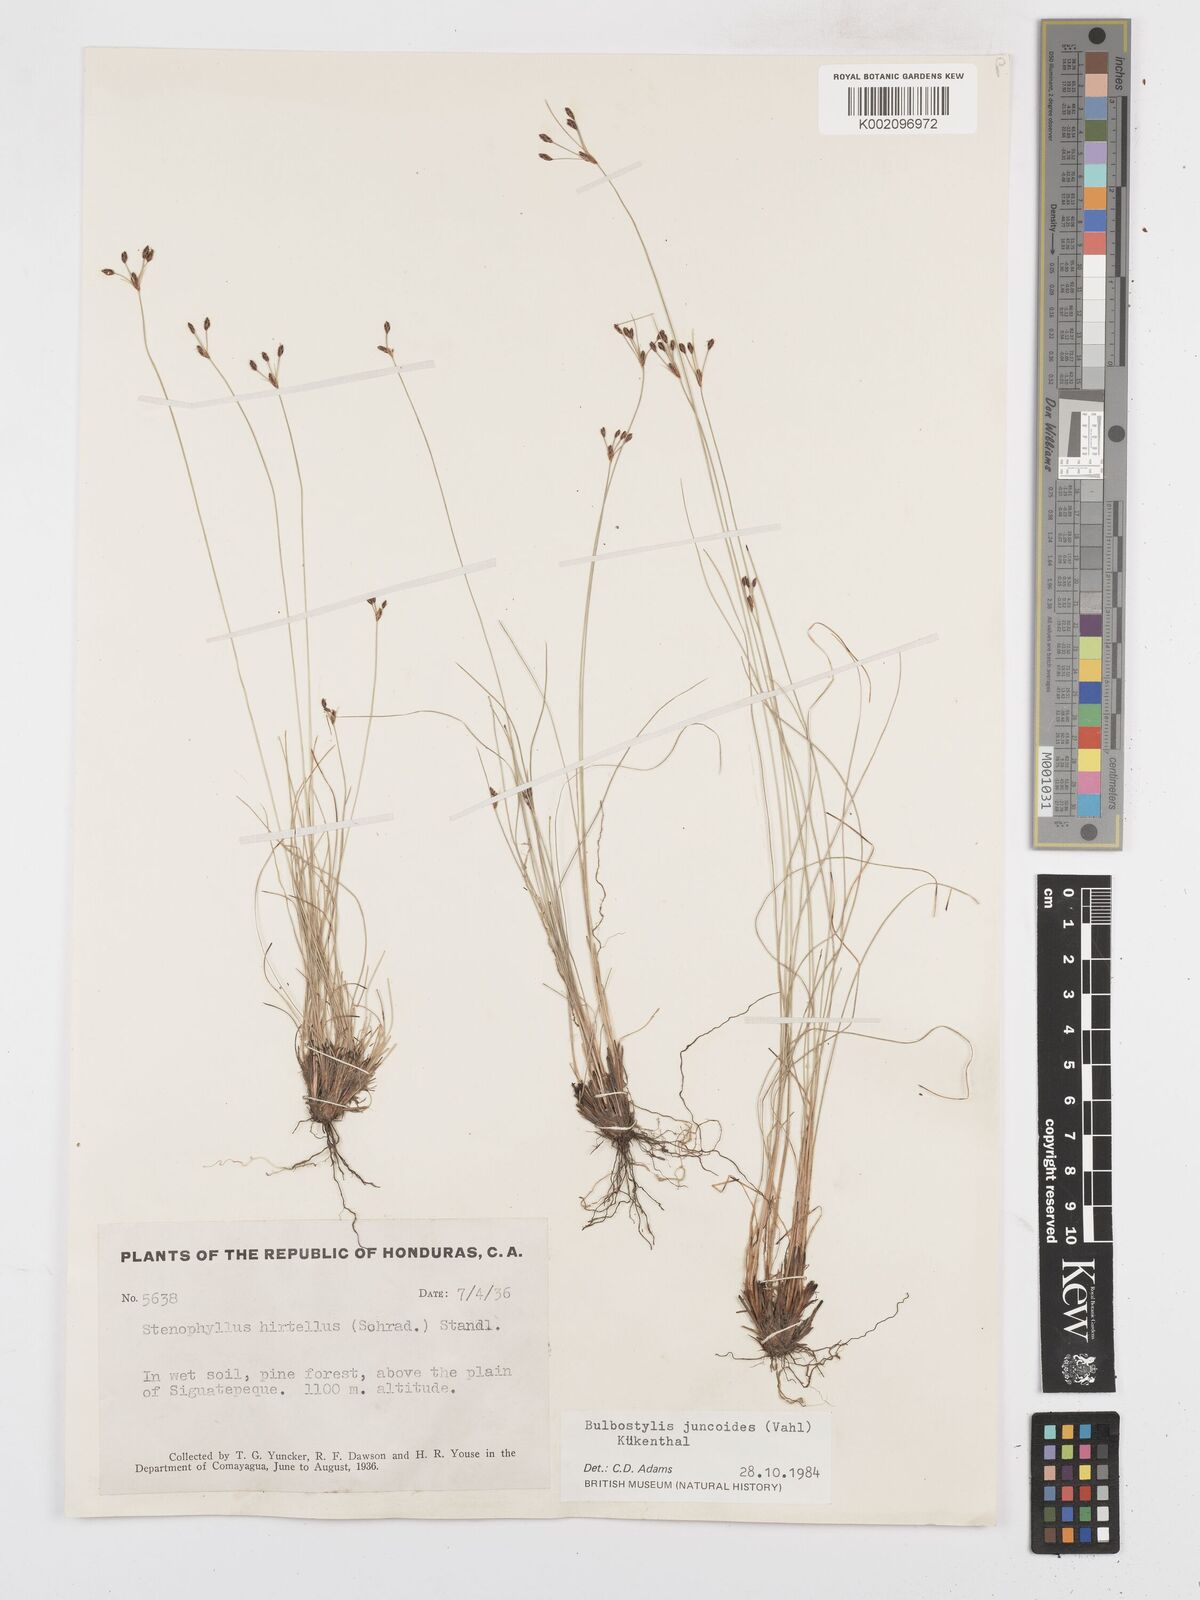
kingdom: Plantae
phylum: Tracheophyta
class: Liliopsida
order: Poales
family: Cyperaceae
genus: Bulbostylis
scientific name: Bulbostylis juncoides
